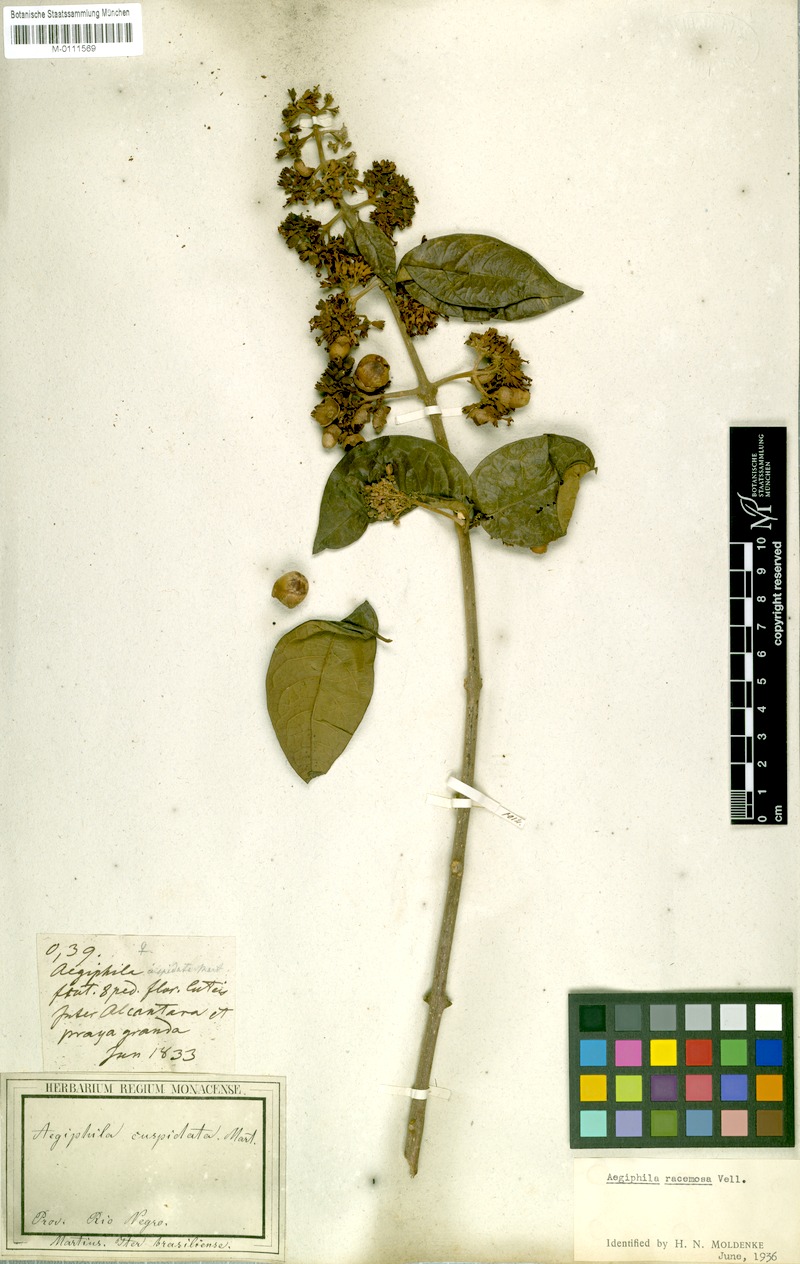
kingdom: Plantae
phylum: Tracheophyta
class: Magnoliopsida
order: Lamiales
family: Lamiaceae
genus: Aegiphila
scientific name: Aegiphila vitelliniflora
